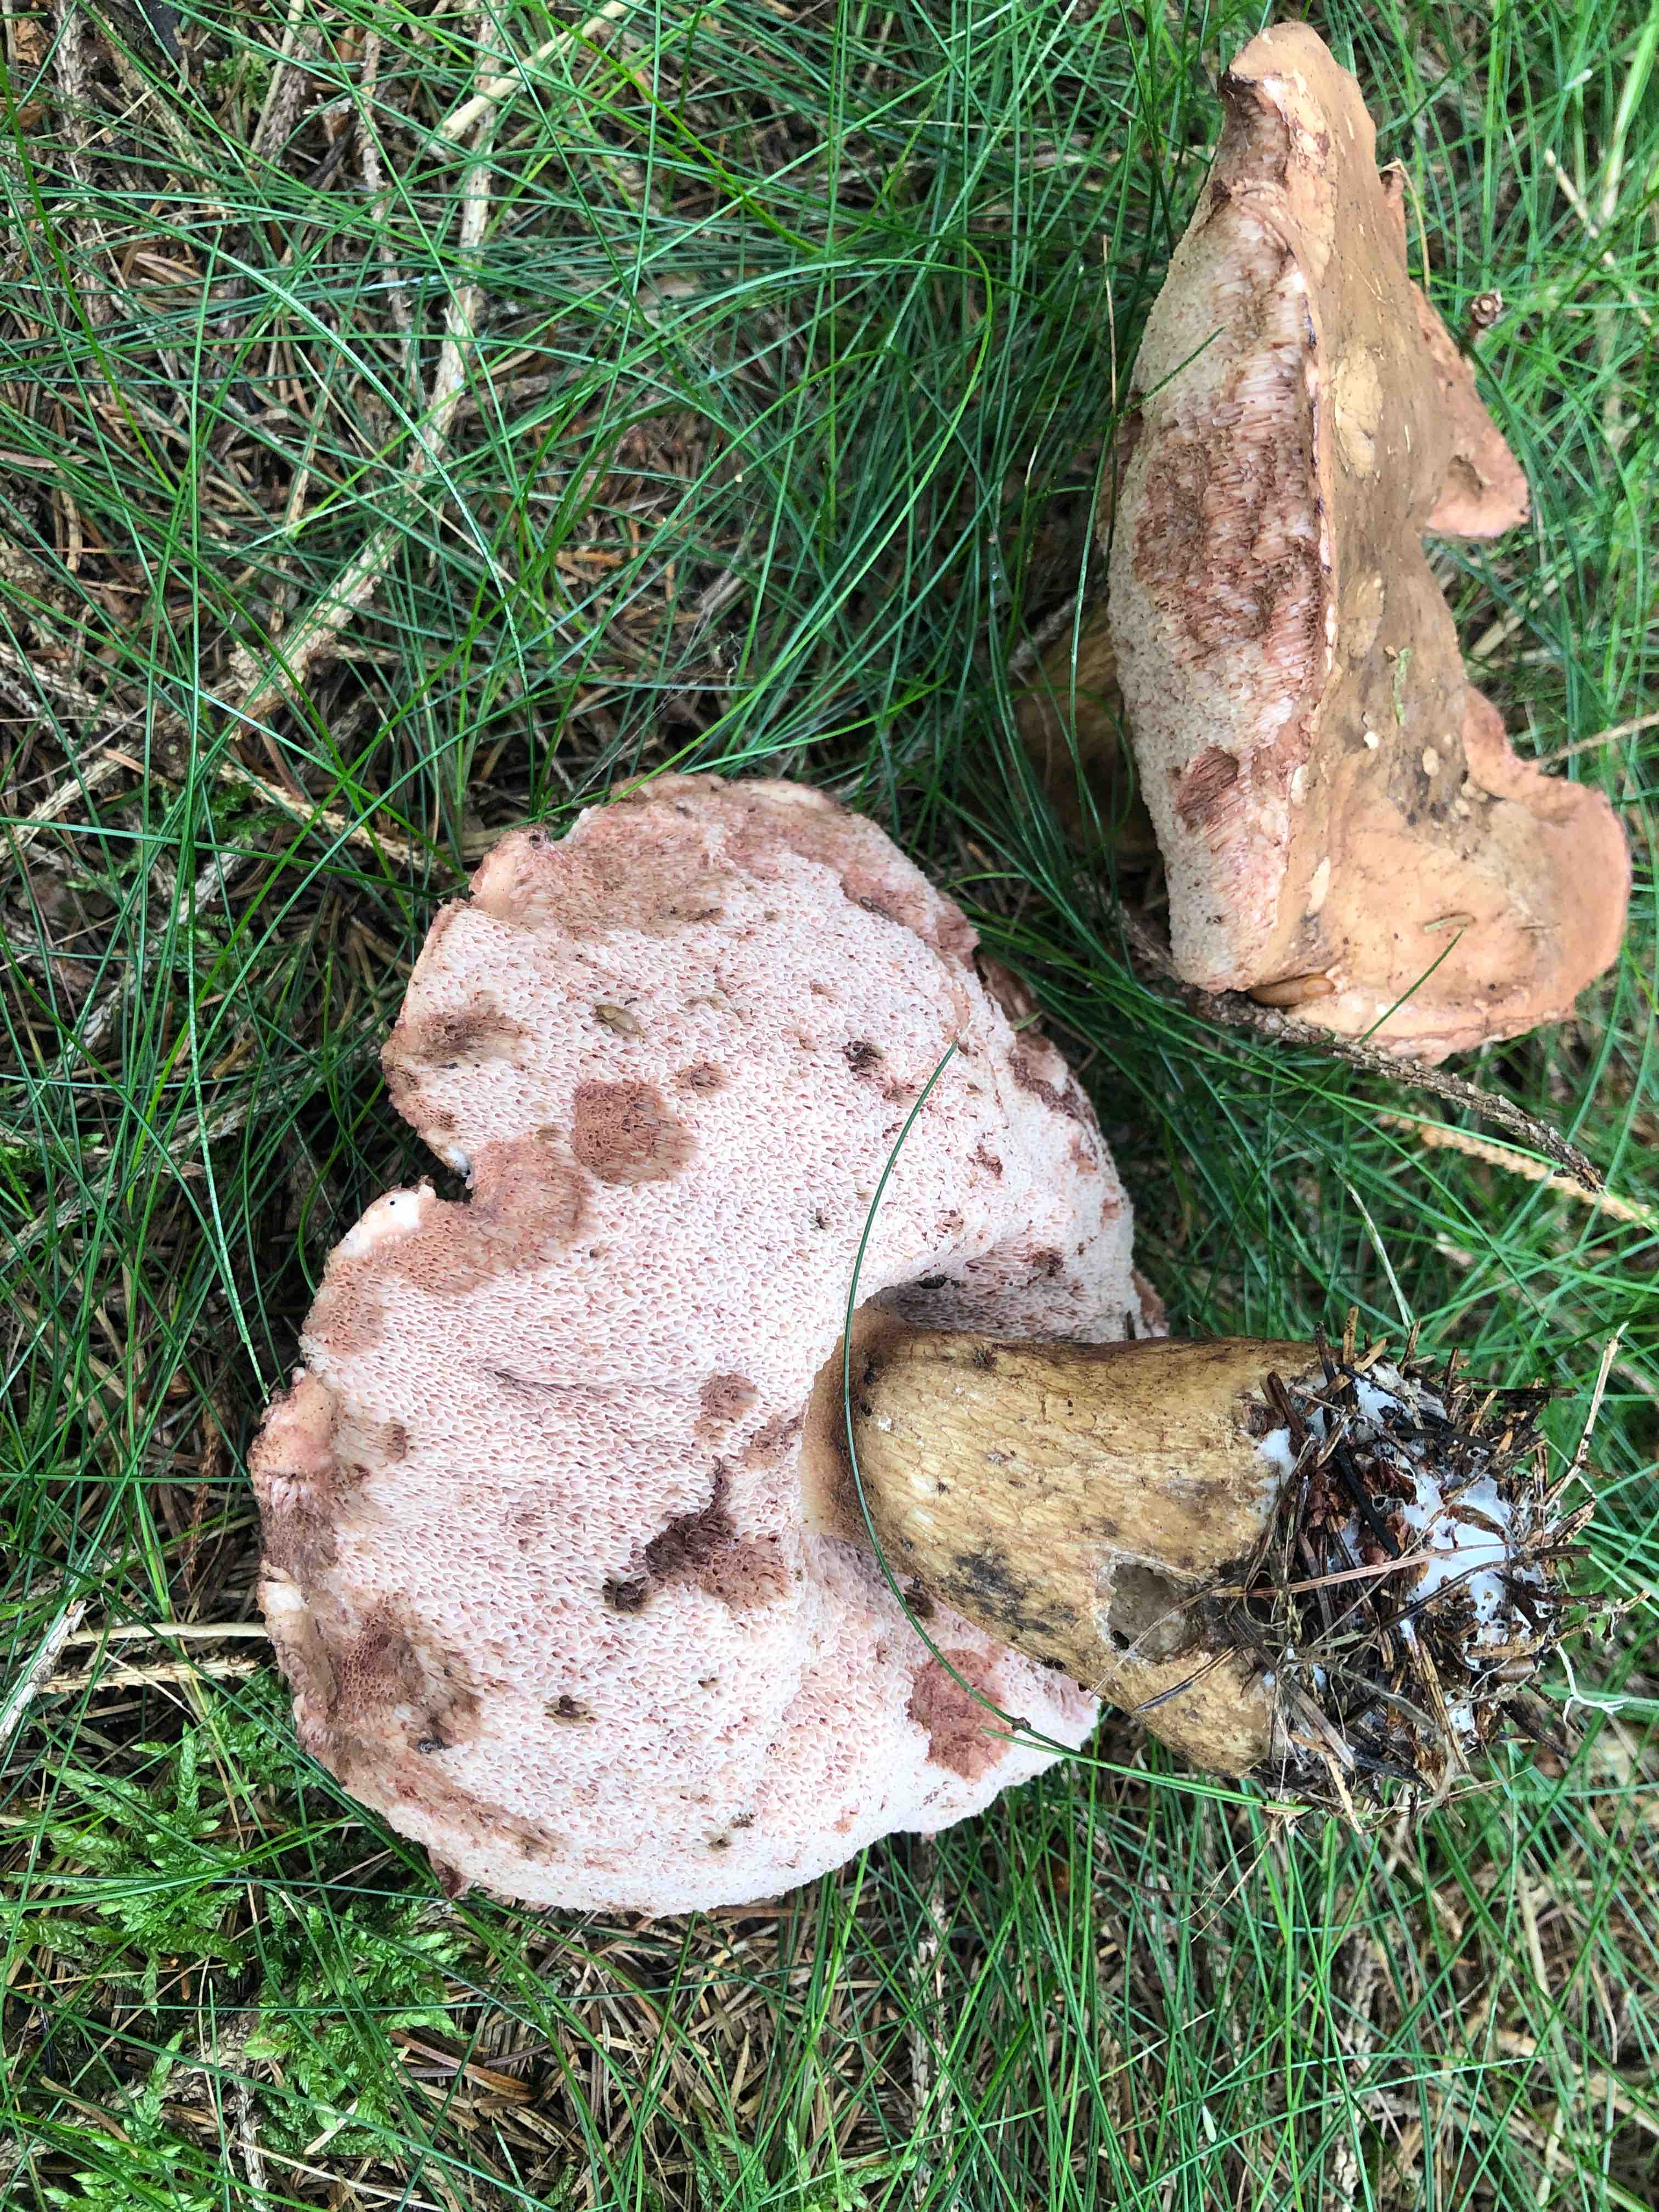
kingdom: Fungi
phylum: Basidiomycota
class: Agaricomycetes
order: Boletales
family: Boletaceae
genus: Tylopilus
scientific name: Tylopilus felleus
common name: galderørhat
